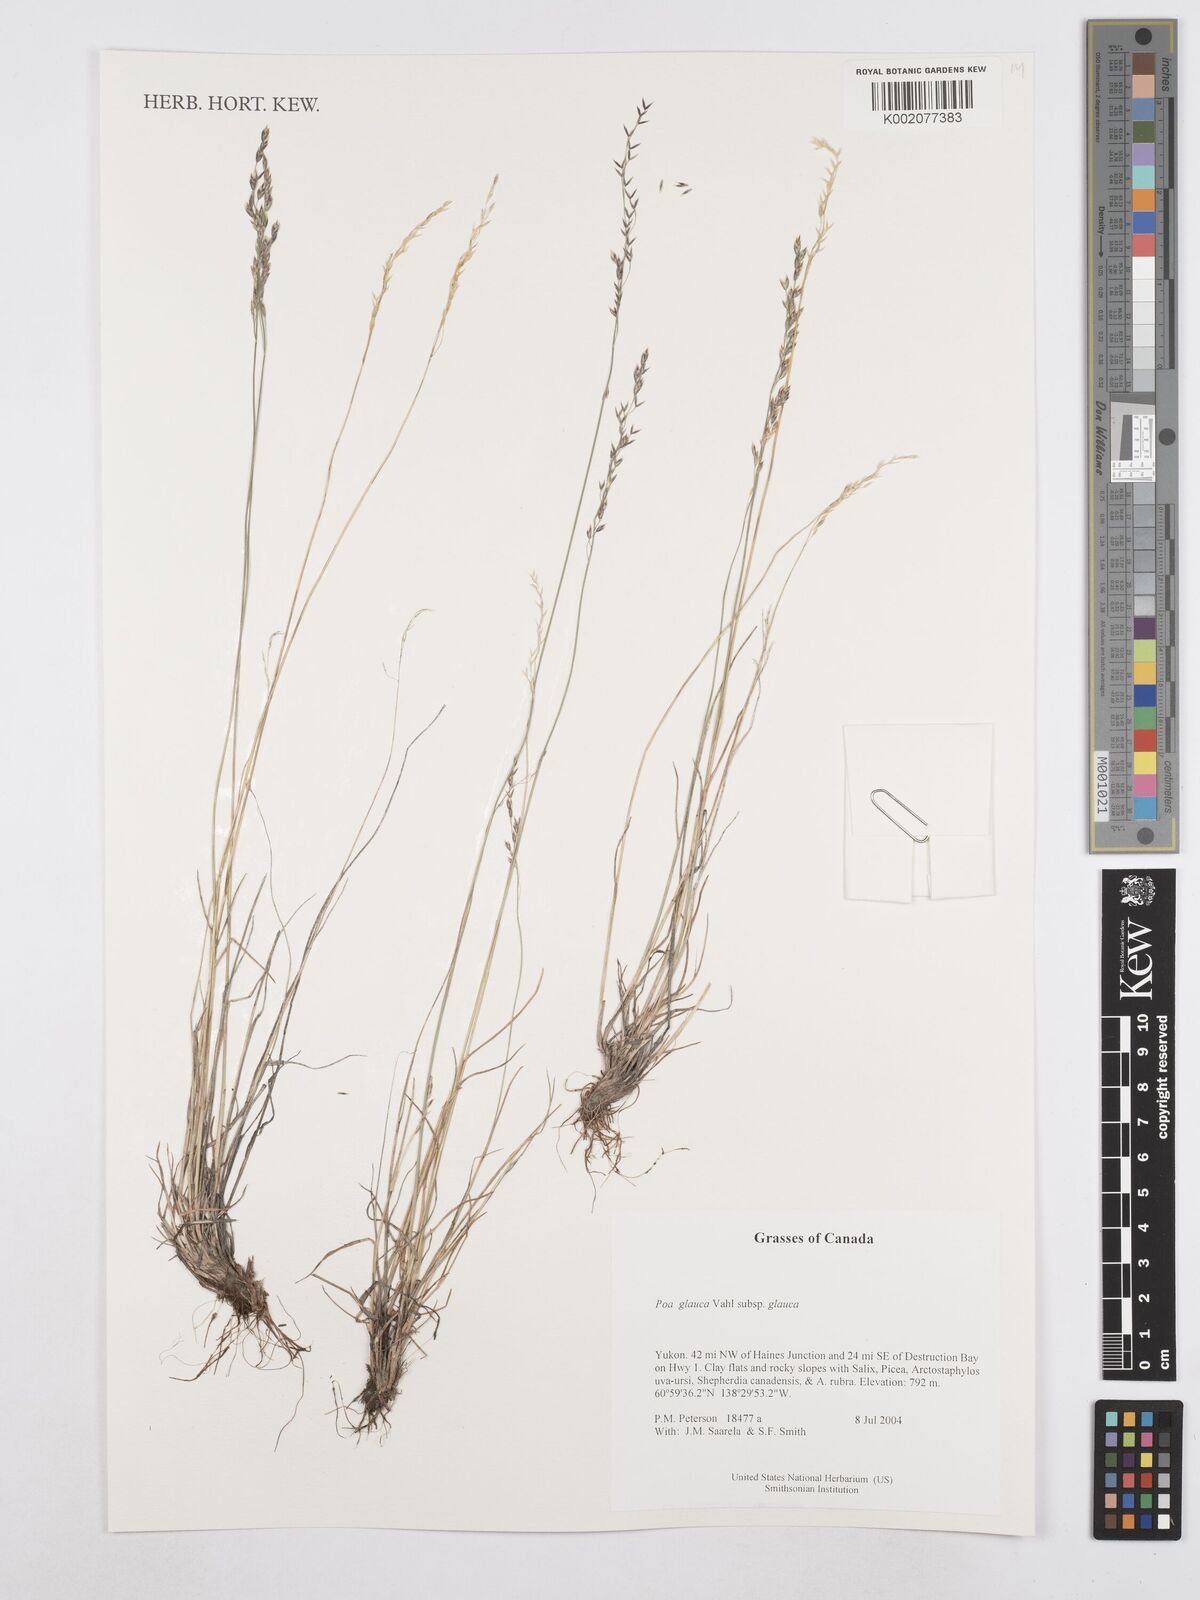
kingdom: Plantae
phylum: Tracheophyta
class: Liliopsida
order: Poales
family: Poaceae
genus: Poa
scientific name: Poa glauca
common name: Glaucous bluegrass
